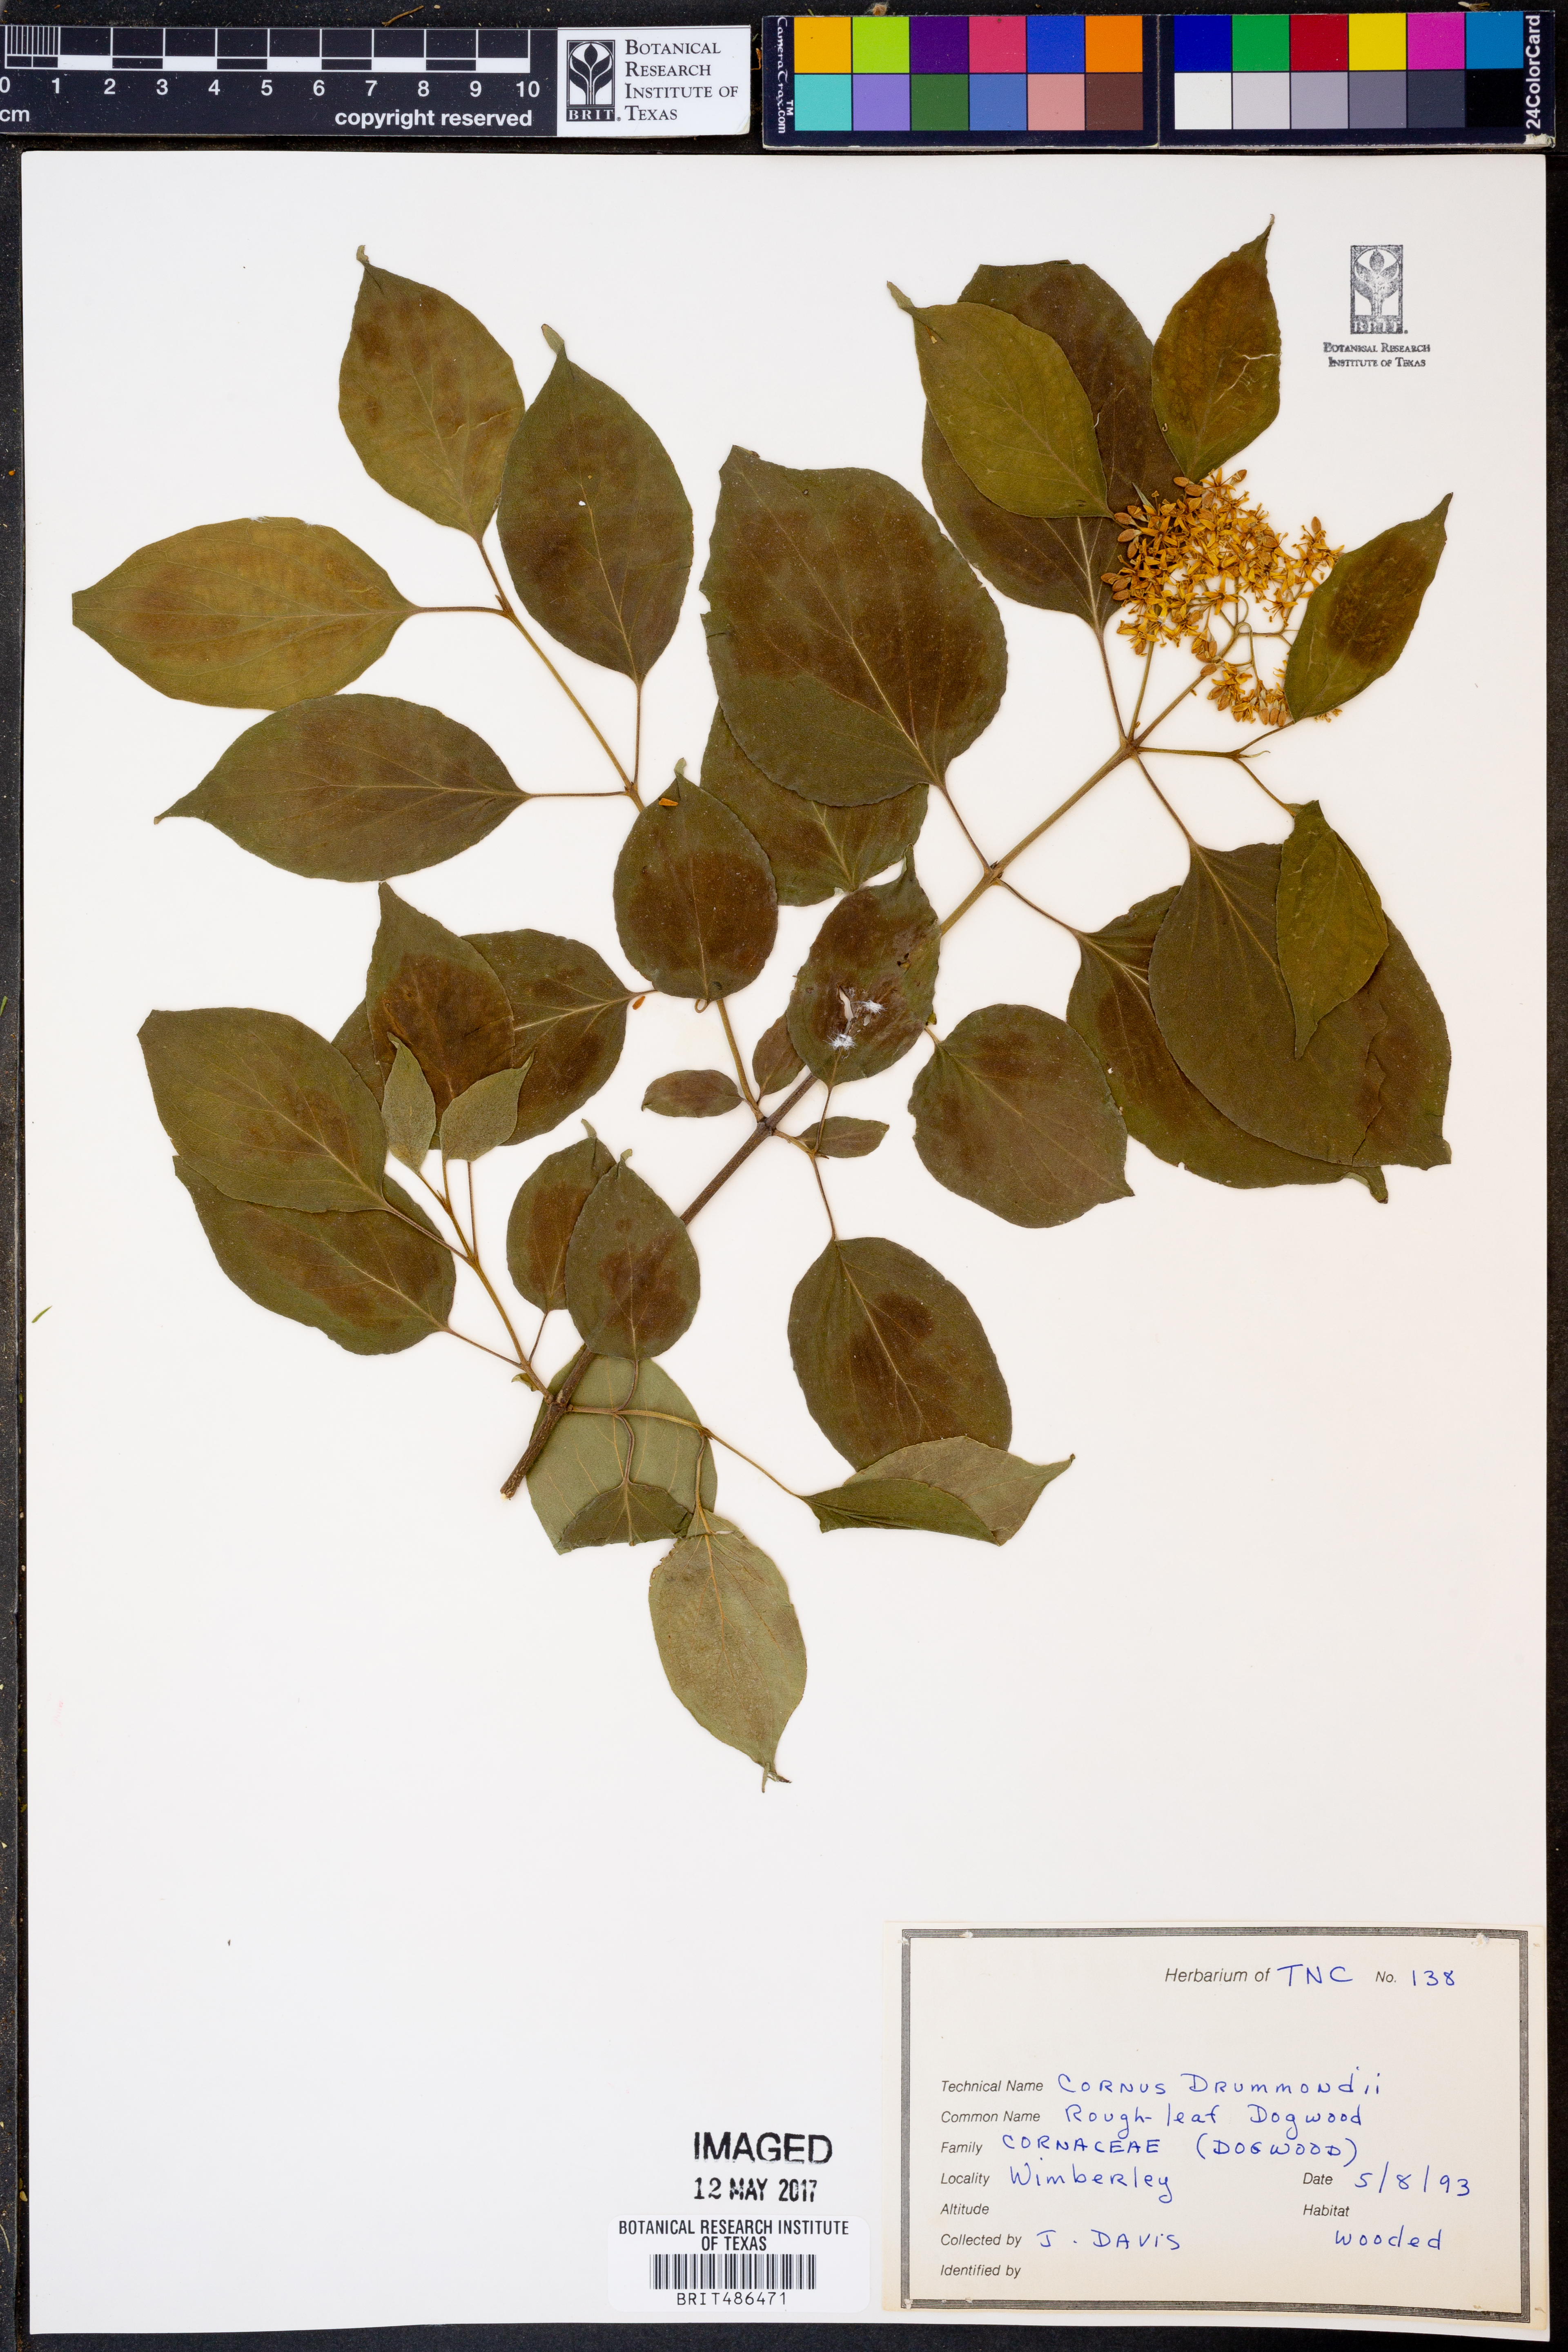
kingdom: Plantae
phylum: Tracheophyta
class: Magnoliopsida
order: Cornales
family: Cornaceae
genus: Cornus
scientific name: Cornus drummondii
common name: Rough-leaf dogwood
